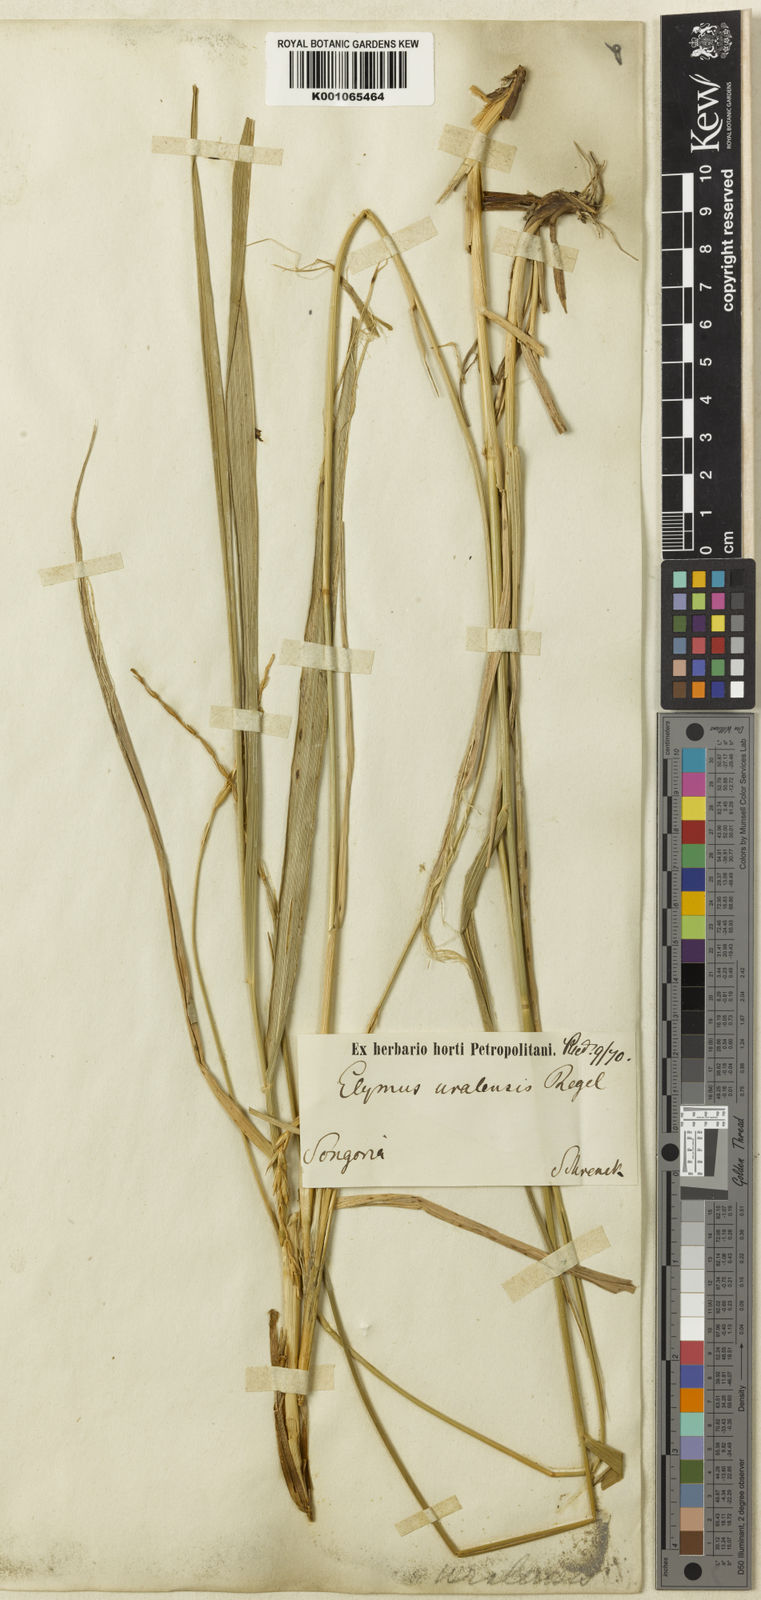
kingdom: Plantae
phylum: Tracheophyta
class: Liliopsida
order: Poales
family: Poaceae
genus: Leymus
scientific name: Leymus multicaulis
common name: Manystem wildrye
